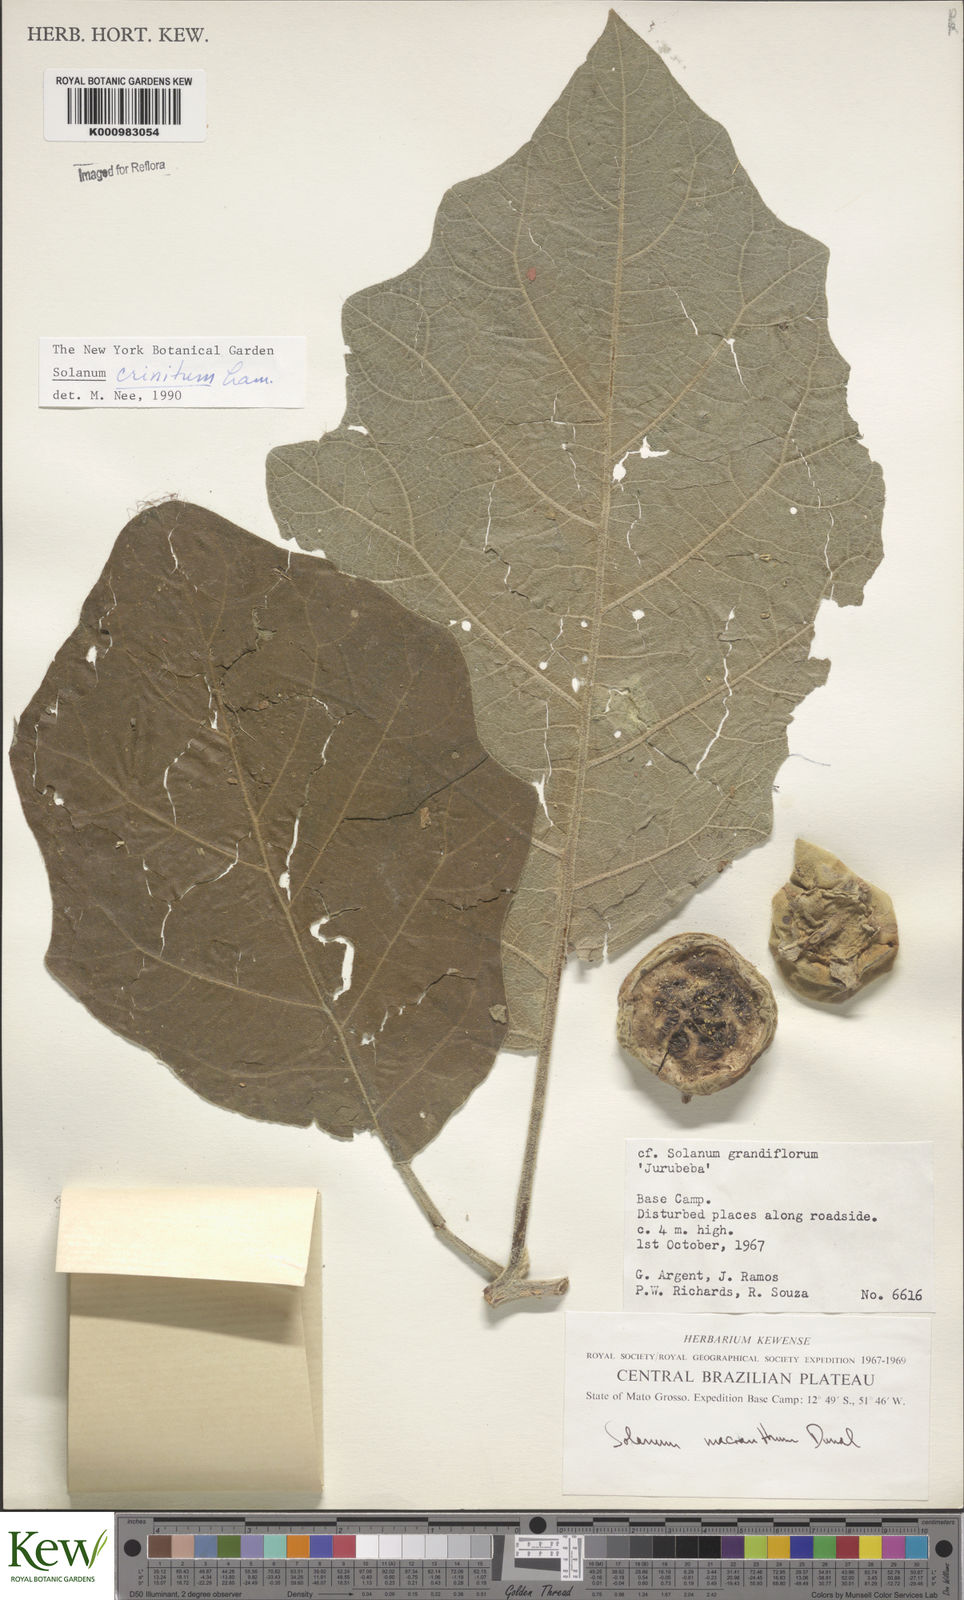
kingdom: Plantae
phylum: Tracheophyta
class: Magnoliopsida
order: Solanales
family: Solanaceae
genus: Solanum
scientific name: Solanum crinitum
